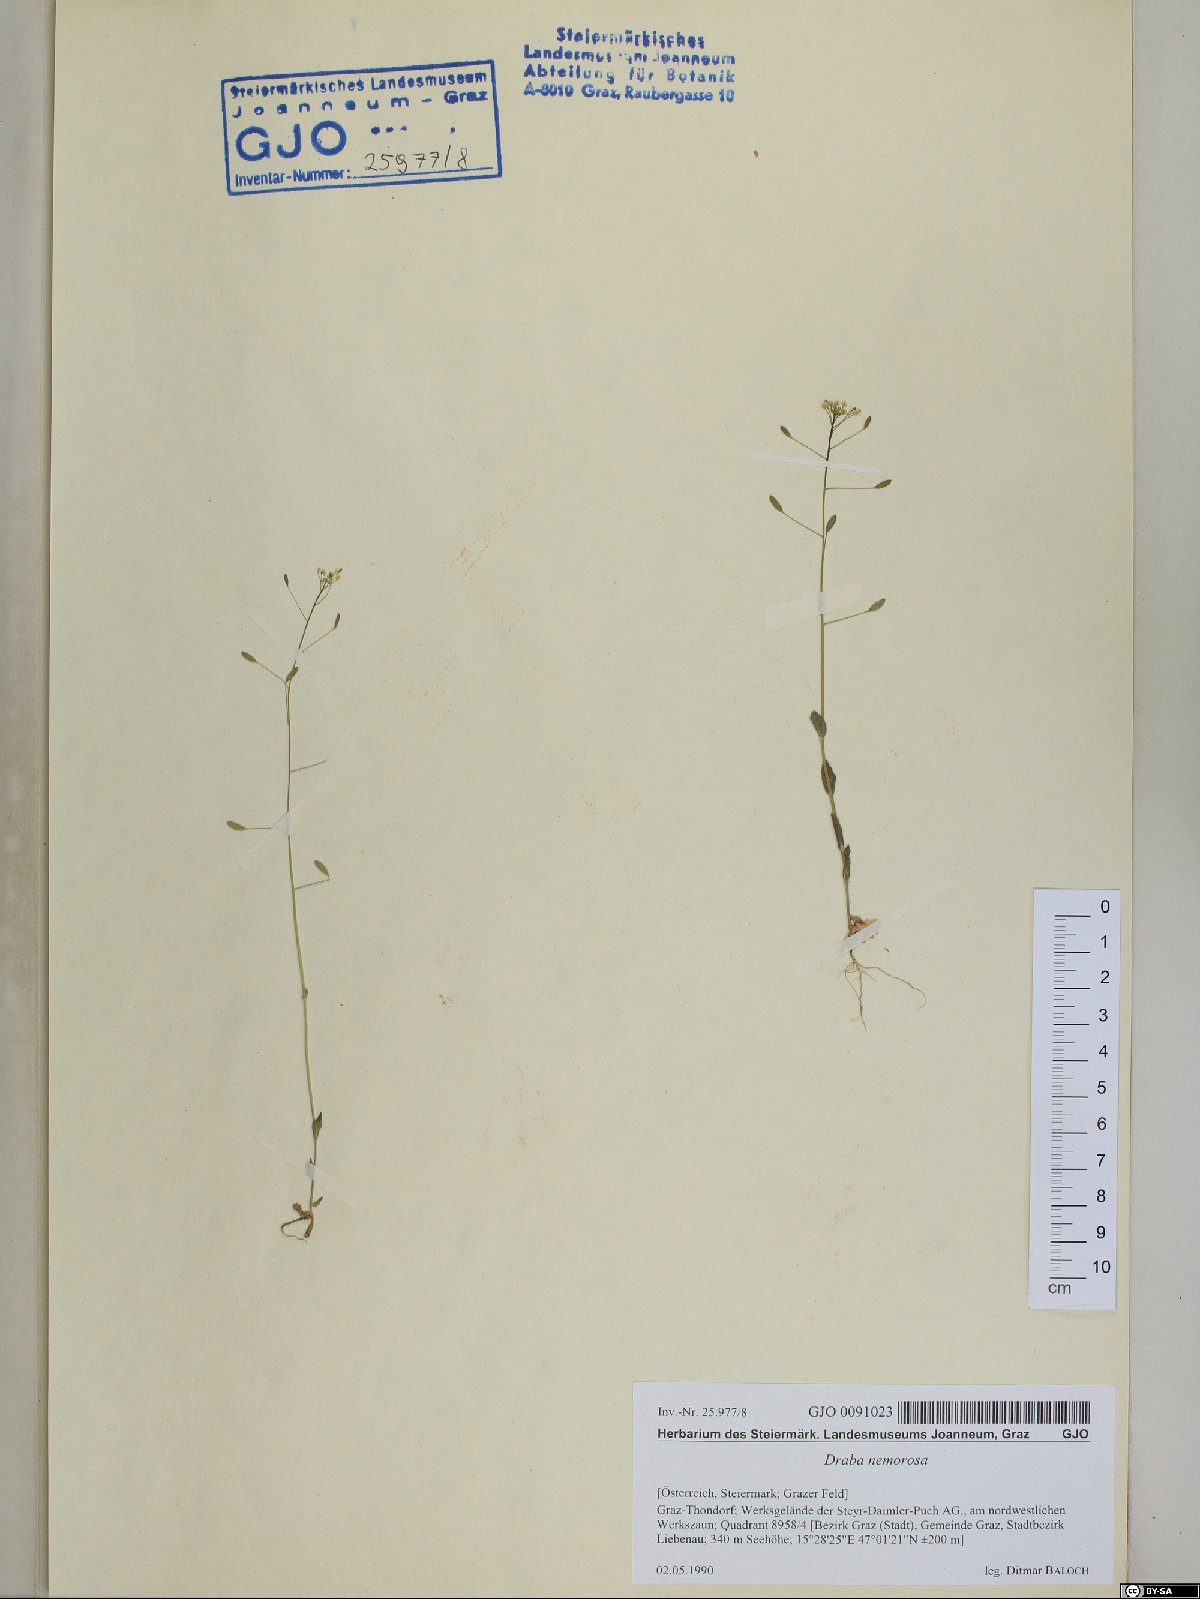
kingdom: Plantae
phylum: Tracheophyta
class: Magnoliopsida
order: Brassicales
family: Brassicaceae
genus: Draba
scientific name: Draba nemorosa
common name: Wood whitlow-grass
